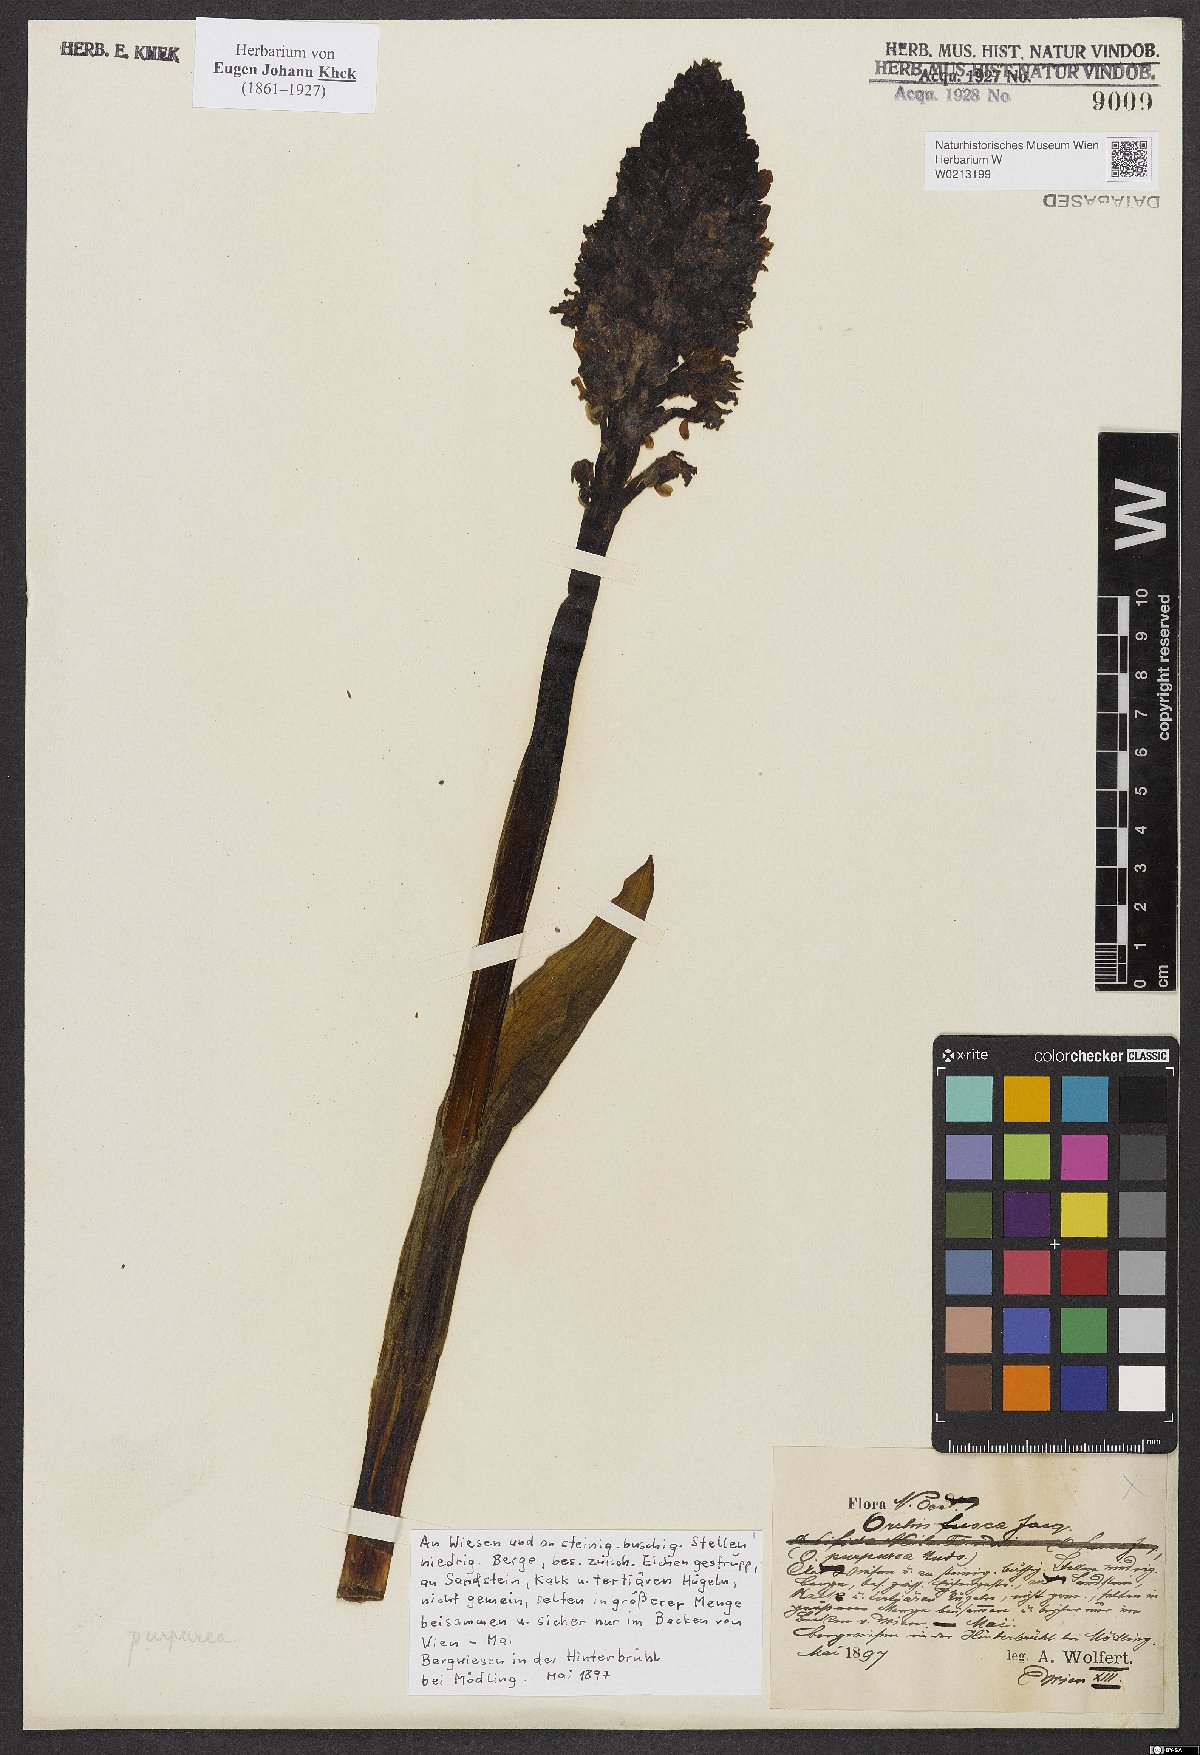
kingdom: Plantae
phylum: Tracheophyta
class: Liliopsida
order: Asparagales
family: Orchidaceae
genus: Orchis
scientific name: Orchis purpurea
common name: Lady orchid
